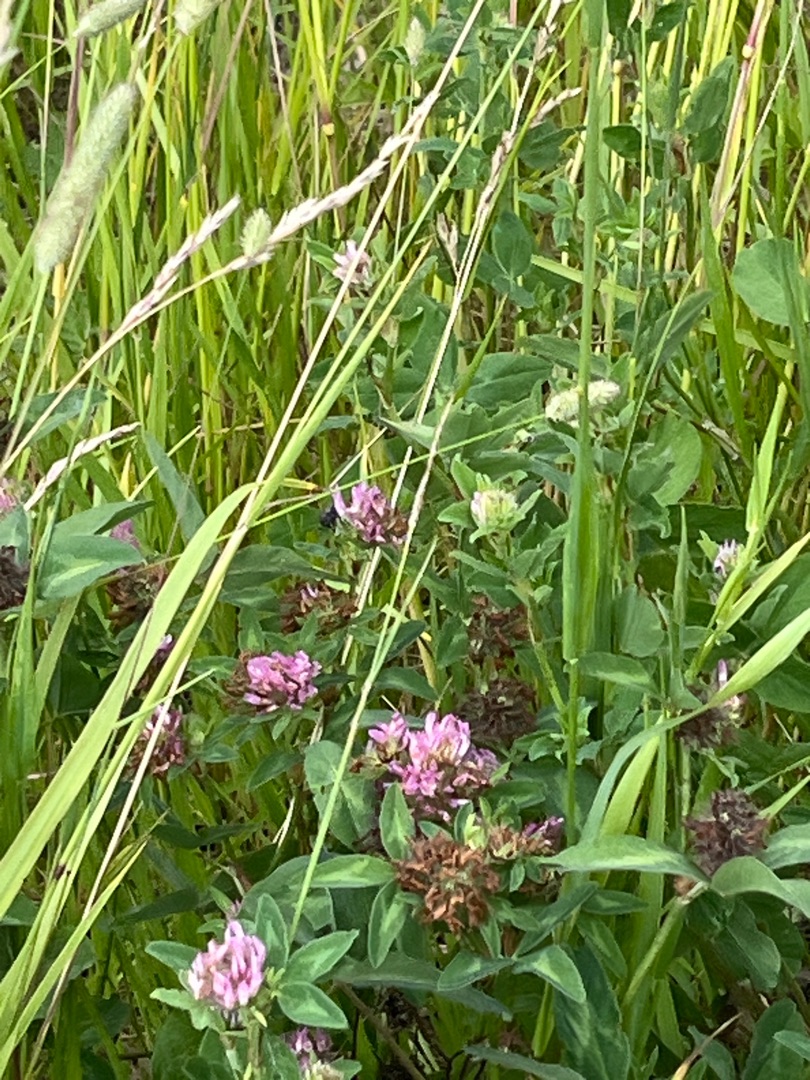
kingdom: Plantae
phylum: Tracheophyta
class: Magnoliopsida
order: Fabales
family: Fabaceae
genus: Trifolium
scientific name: Trifolium pratense
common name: Rød-kløver
